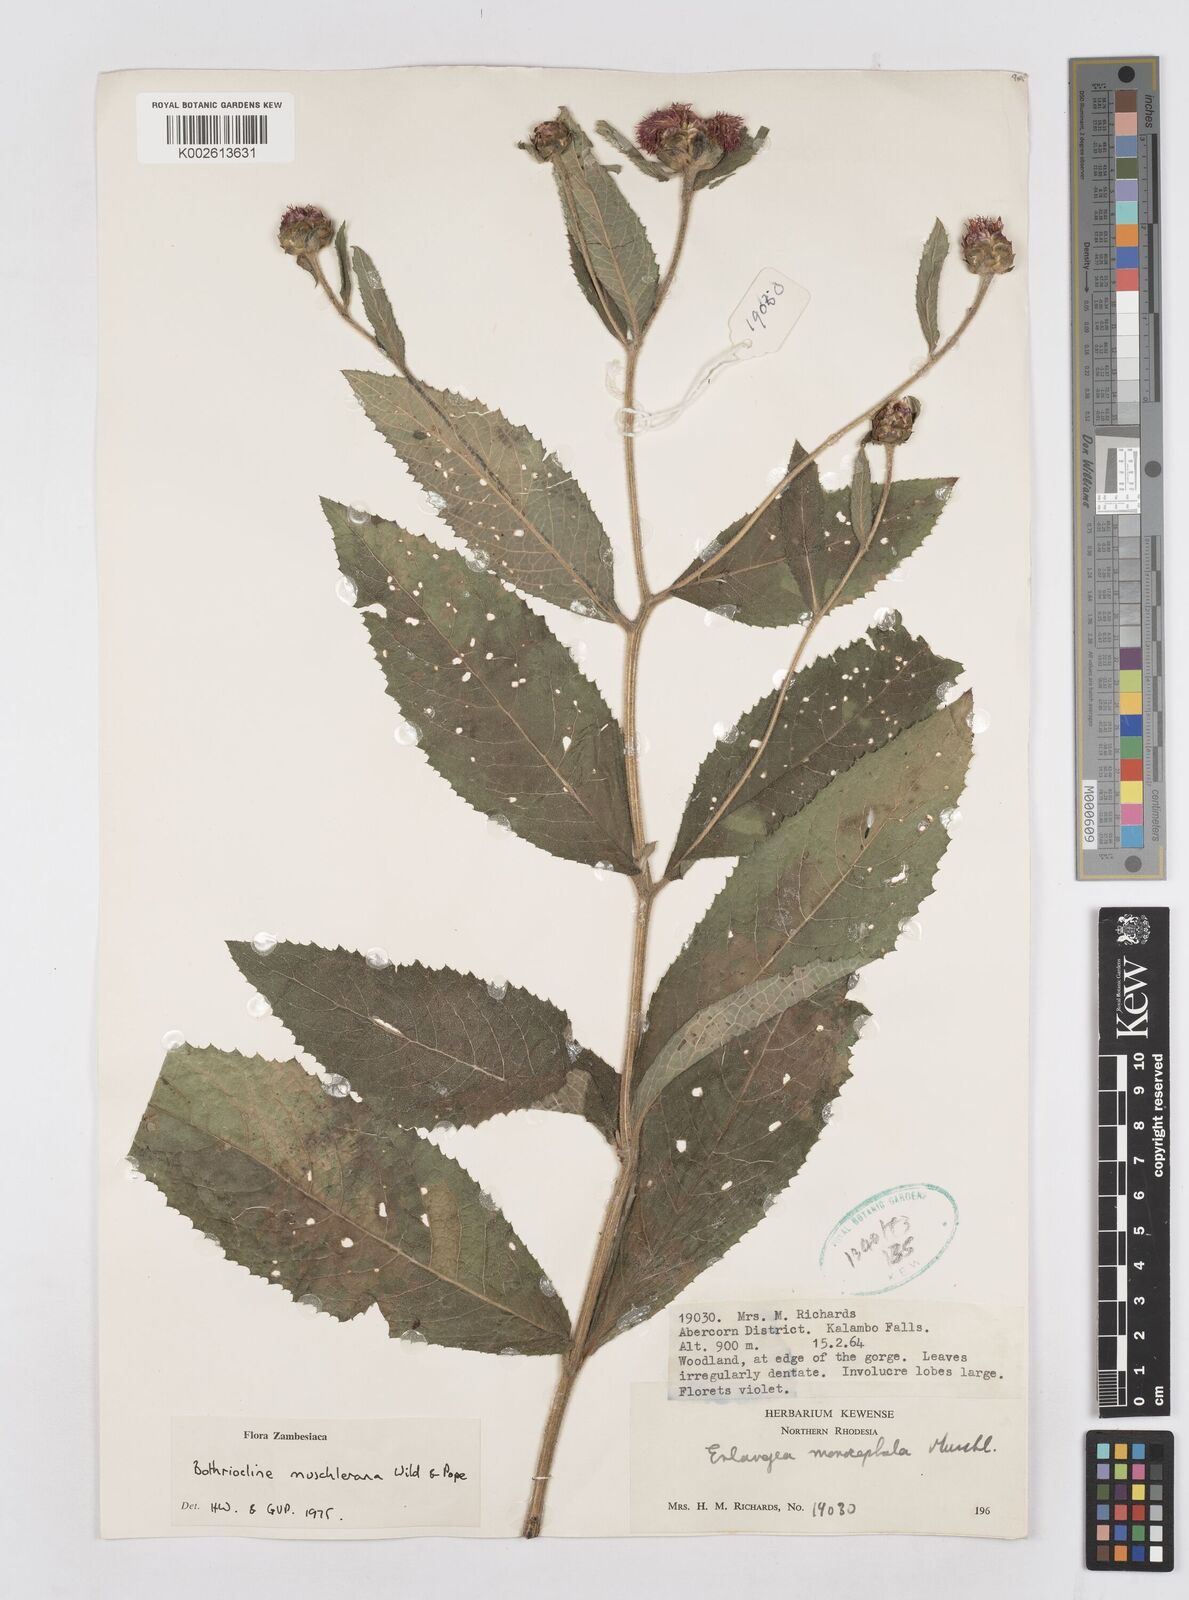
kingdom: Plantae
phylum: Tracheophyta
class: Magnoliopsida
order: Asterales
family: Asteraceae
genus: Bothriocline
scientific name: Bothriocline muschleriana
